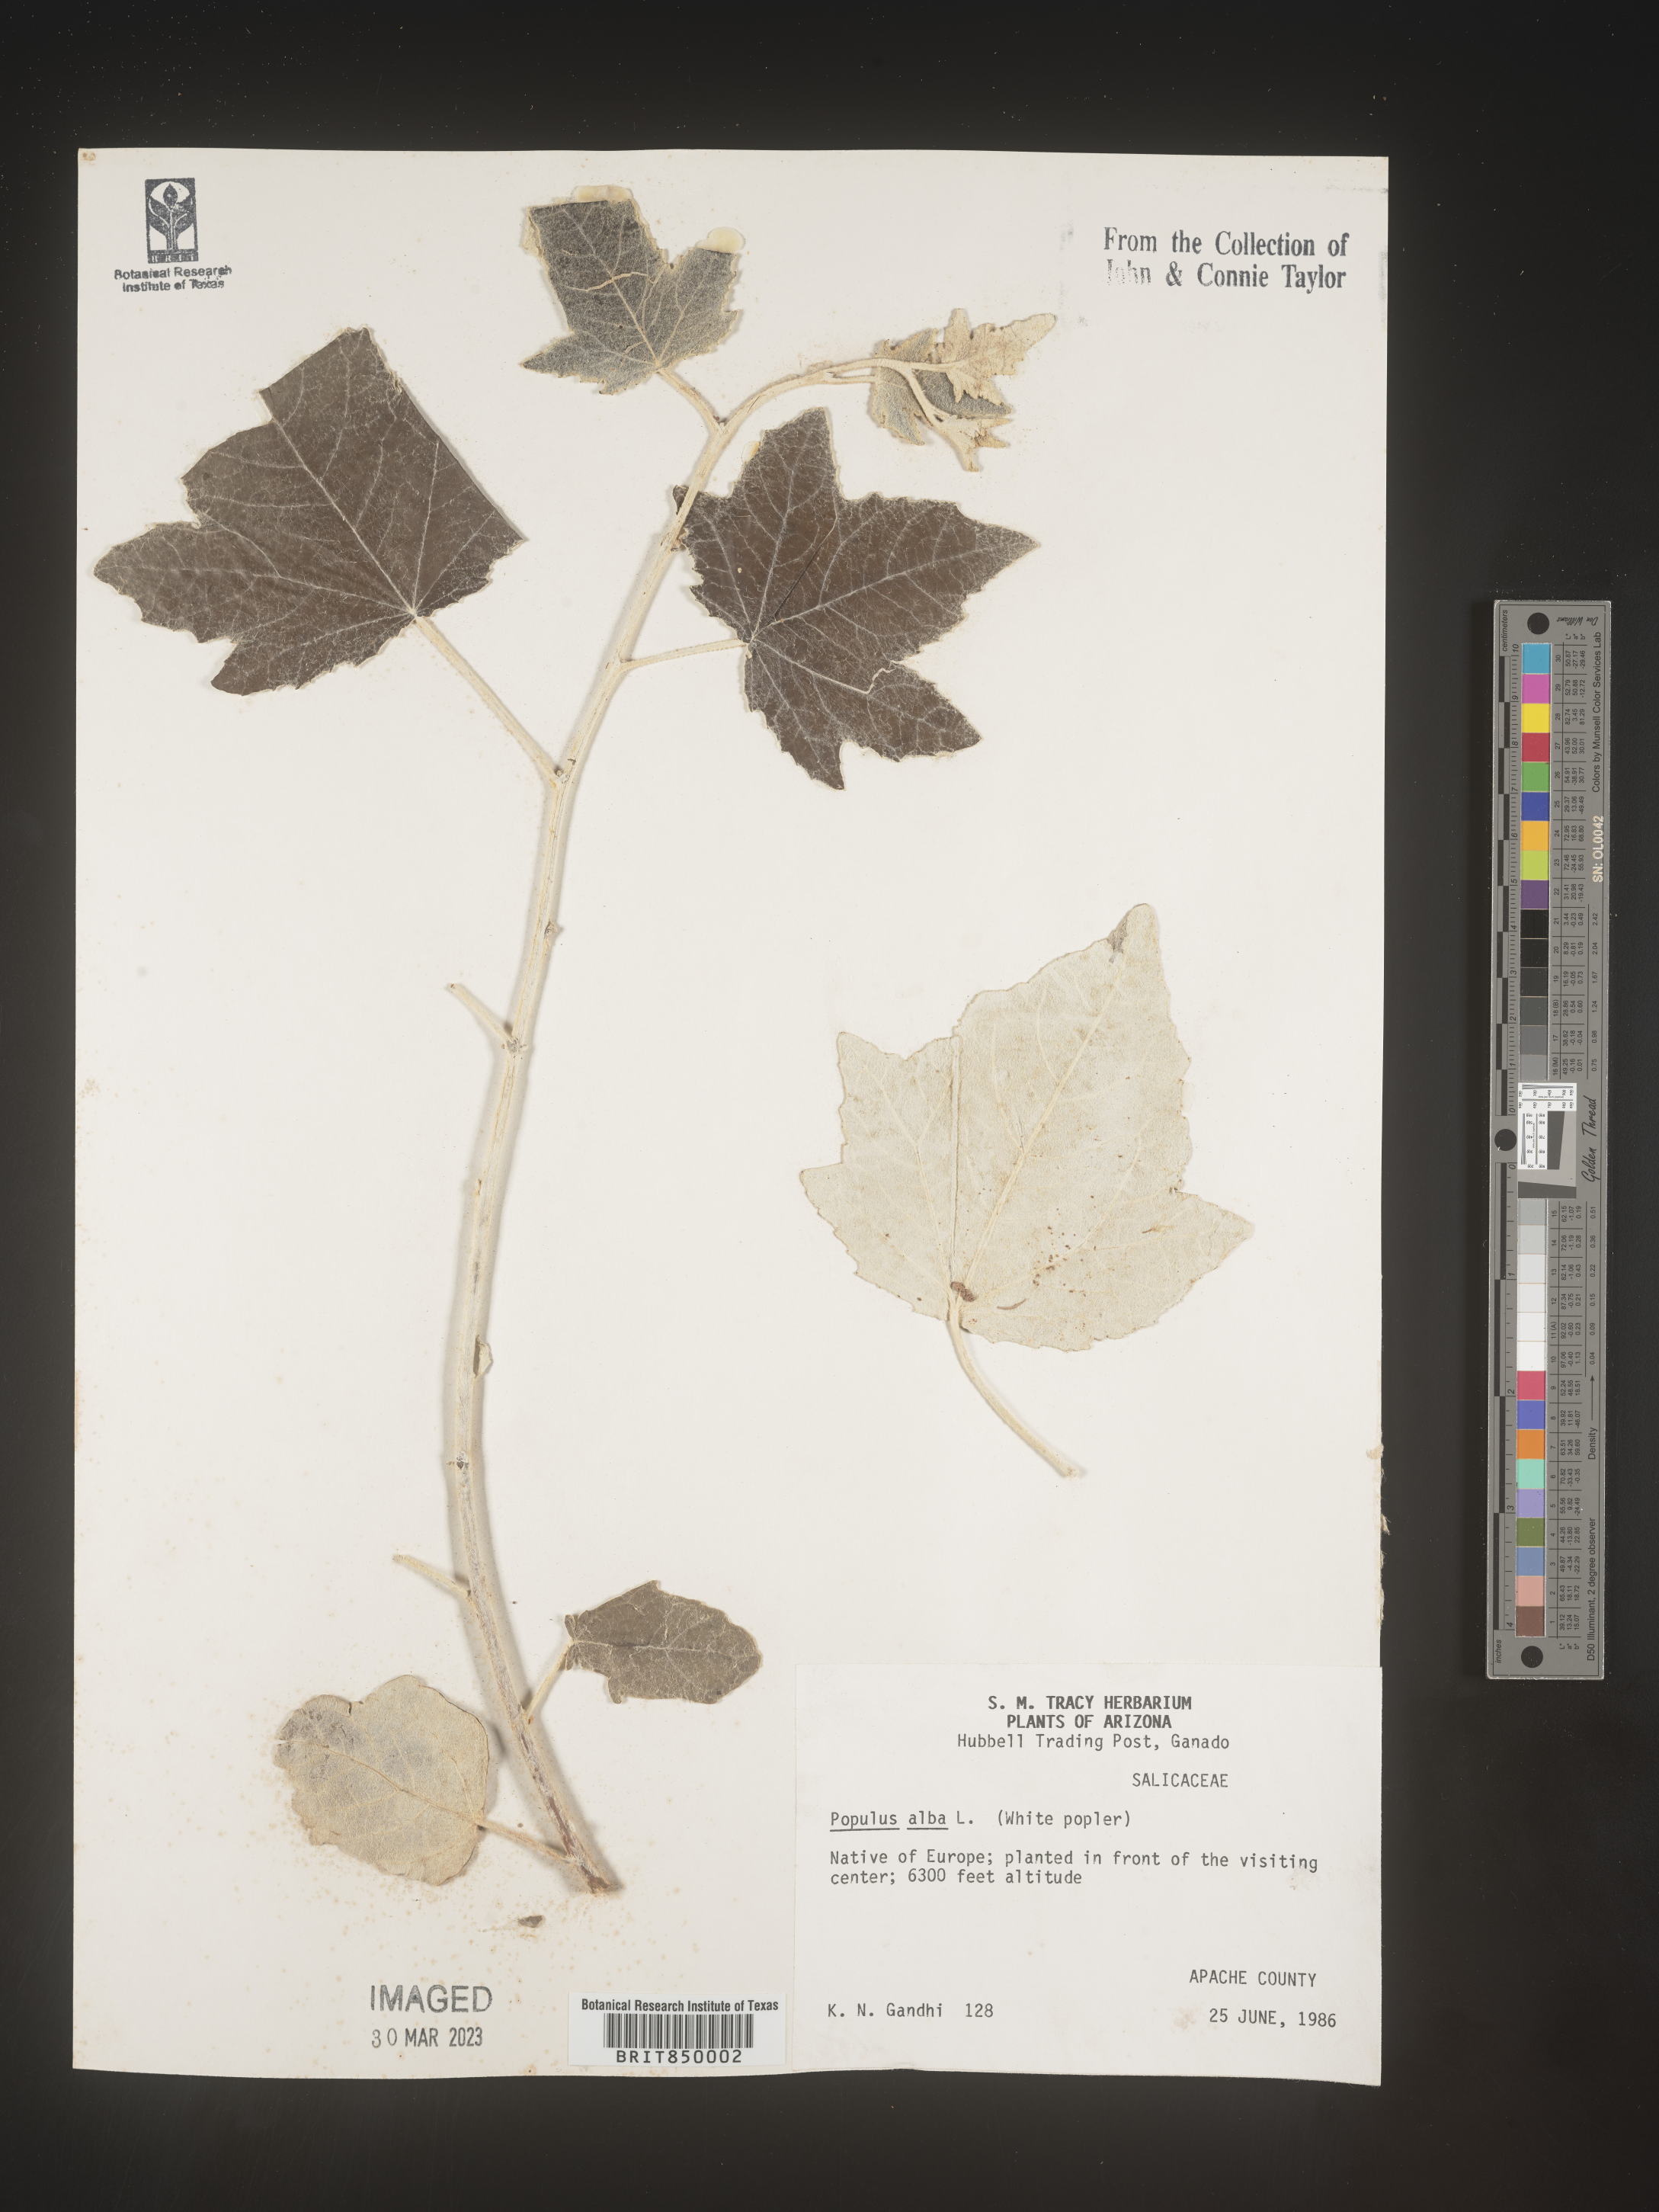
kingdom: Plantae
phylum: Tracheophyta
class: Magnoliopsida
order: Malpighiales
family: Salicaceae
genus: Populus
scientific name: Populus alba
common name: White poplar
